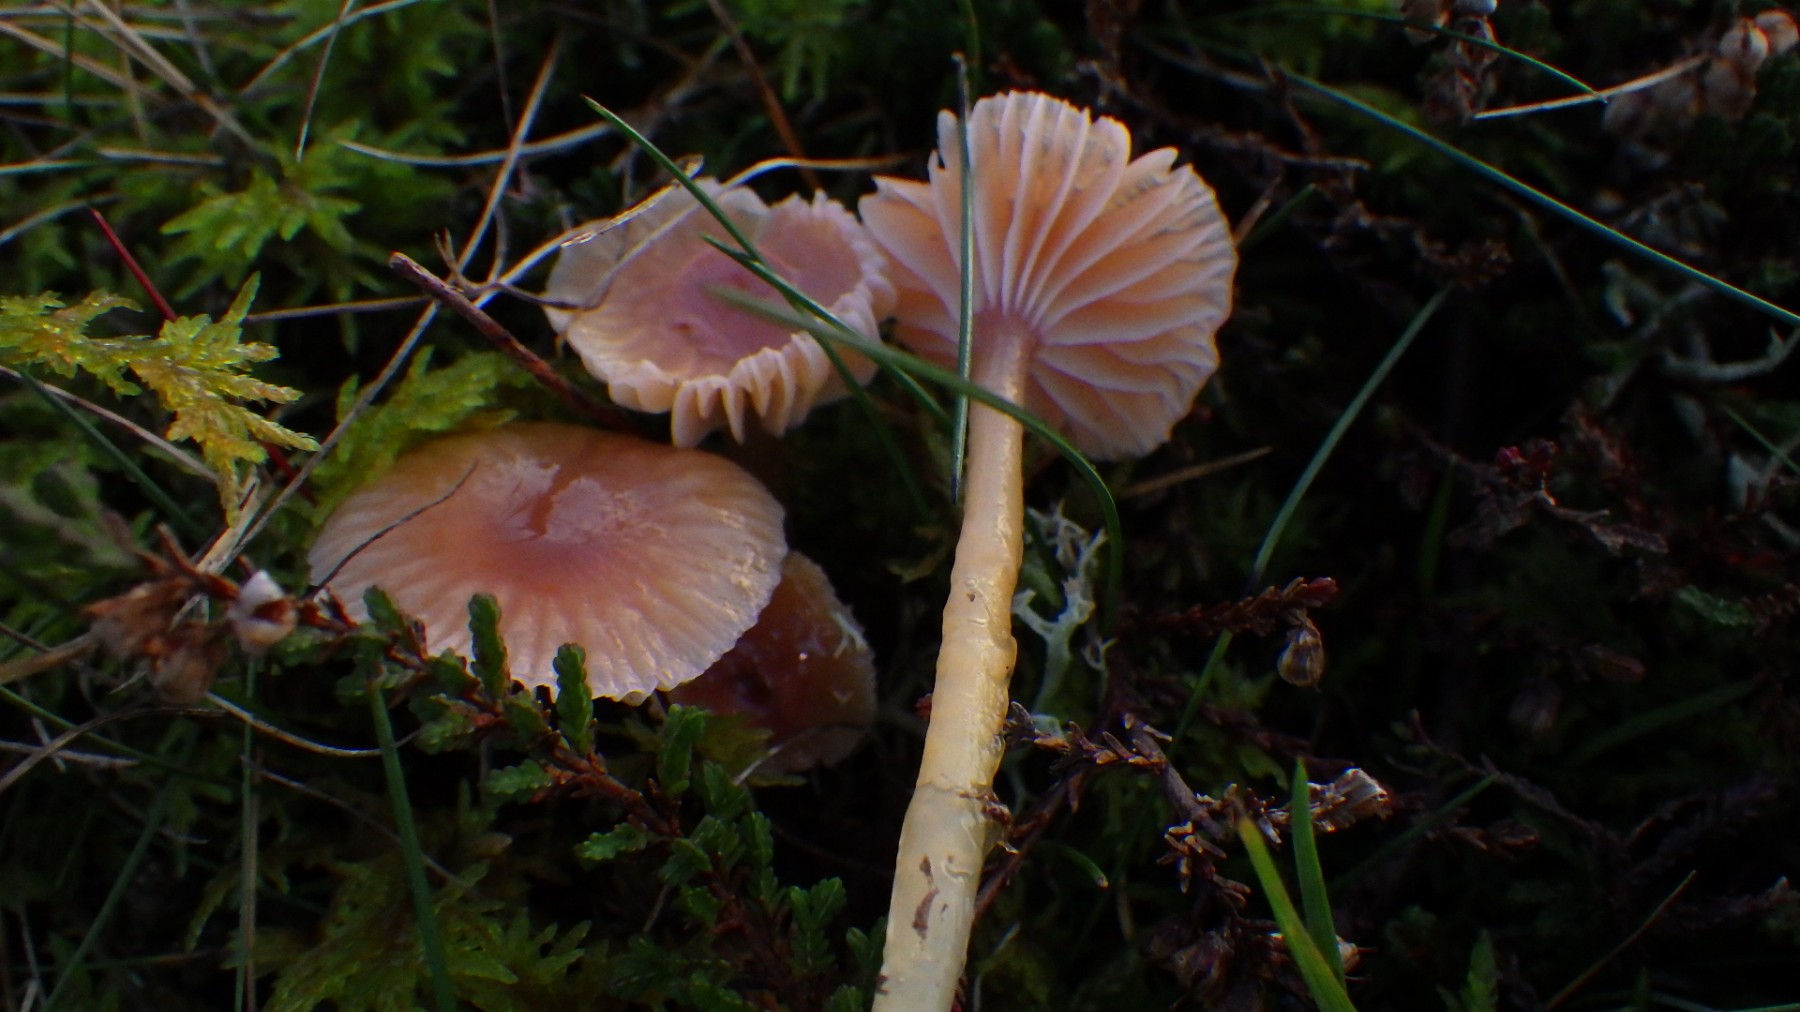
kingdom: Fungi
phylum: Basidiomycota
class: Agaricomycetes
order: Agaricales
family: Hygrophoraceae
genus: Gliophorus
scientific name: Gliophorus laetus
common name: brusk-vokshat
